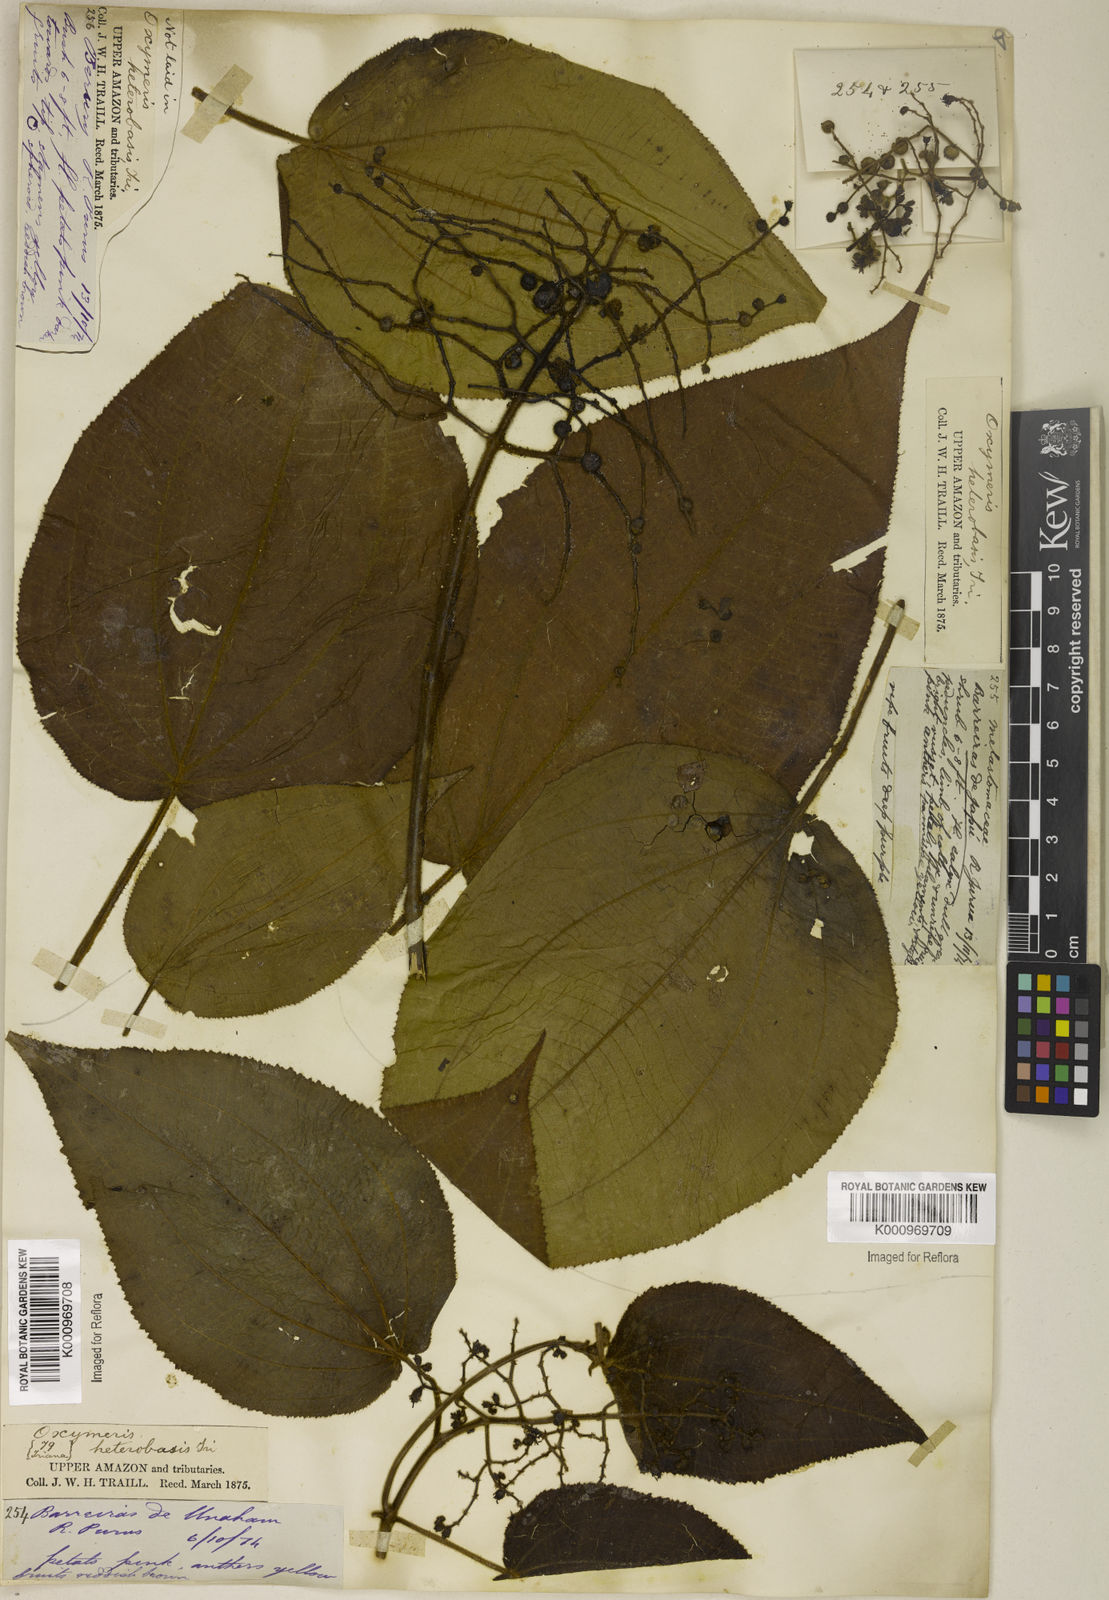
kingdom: Plantae
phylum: Tracheophyta
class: Magnoliopsida
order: Myrtales
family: Melastomataceae
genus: Miconia
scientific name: Miconia solenifera
